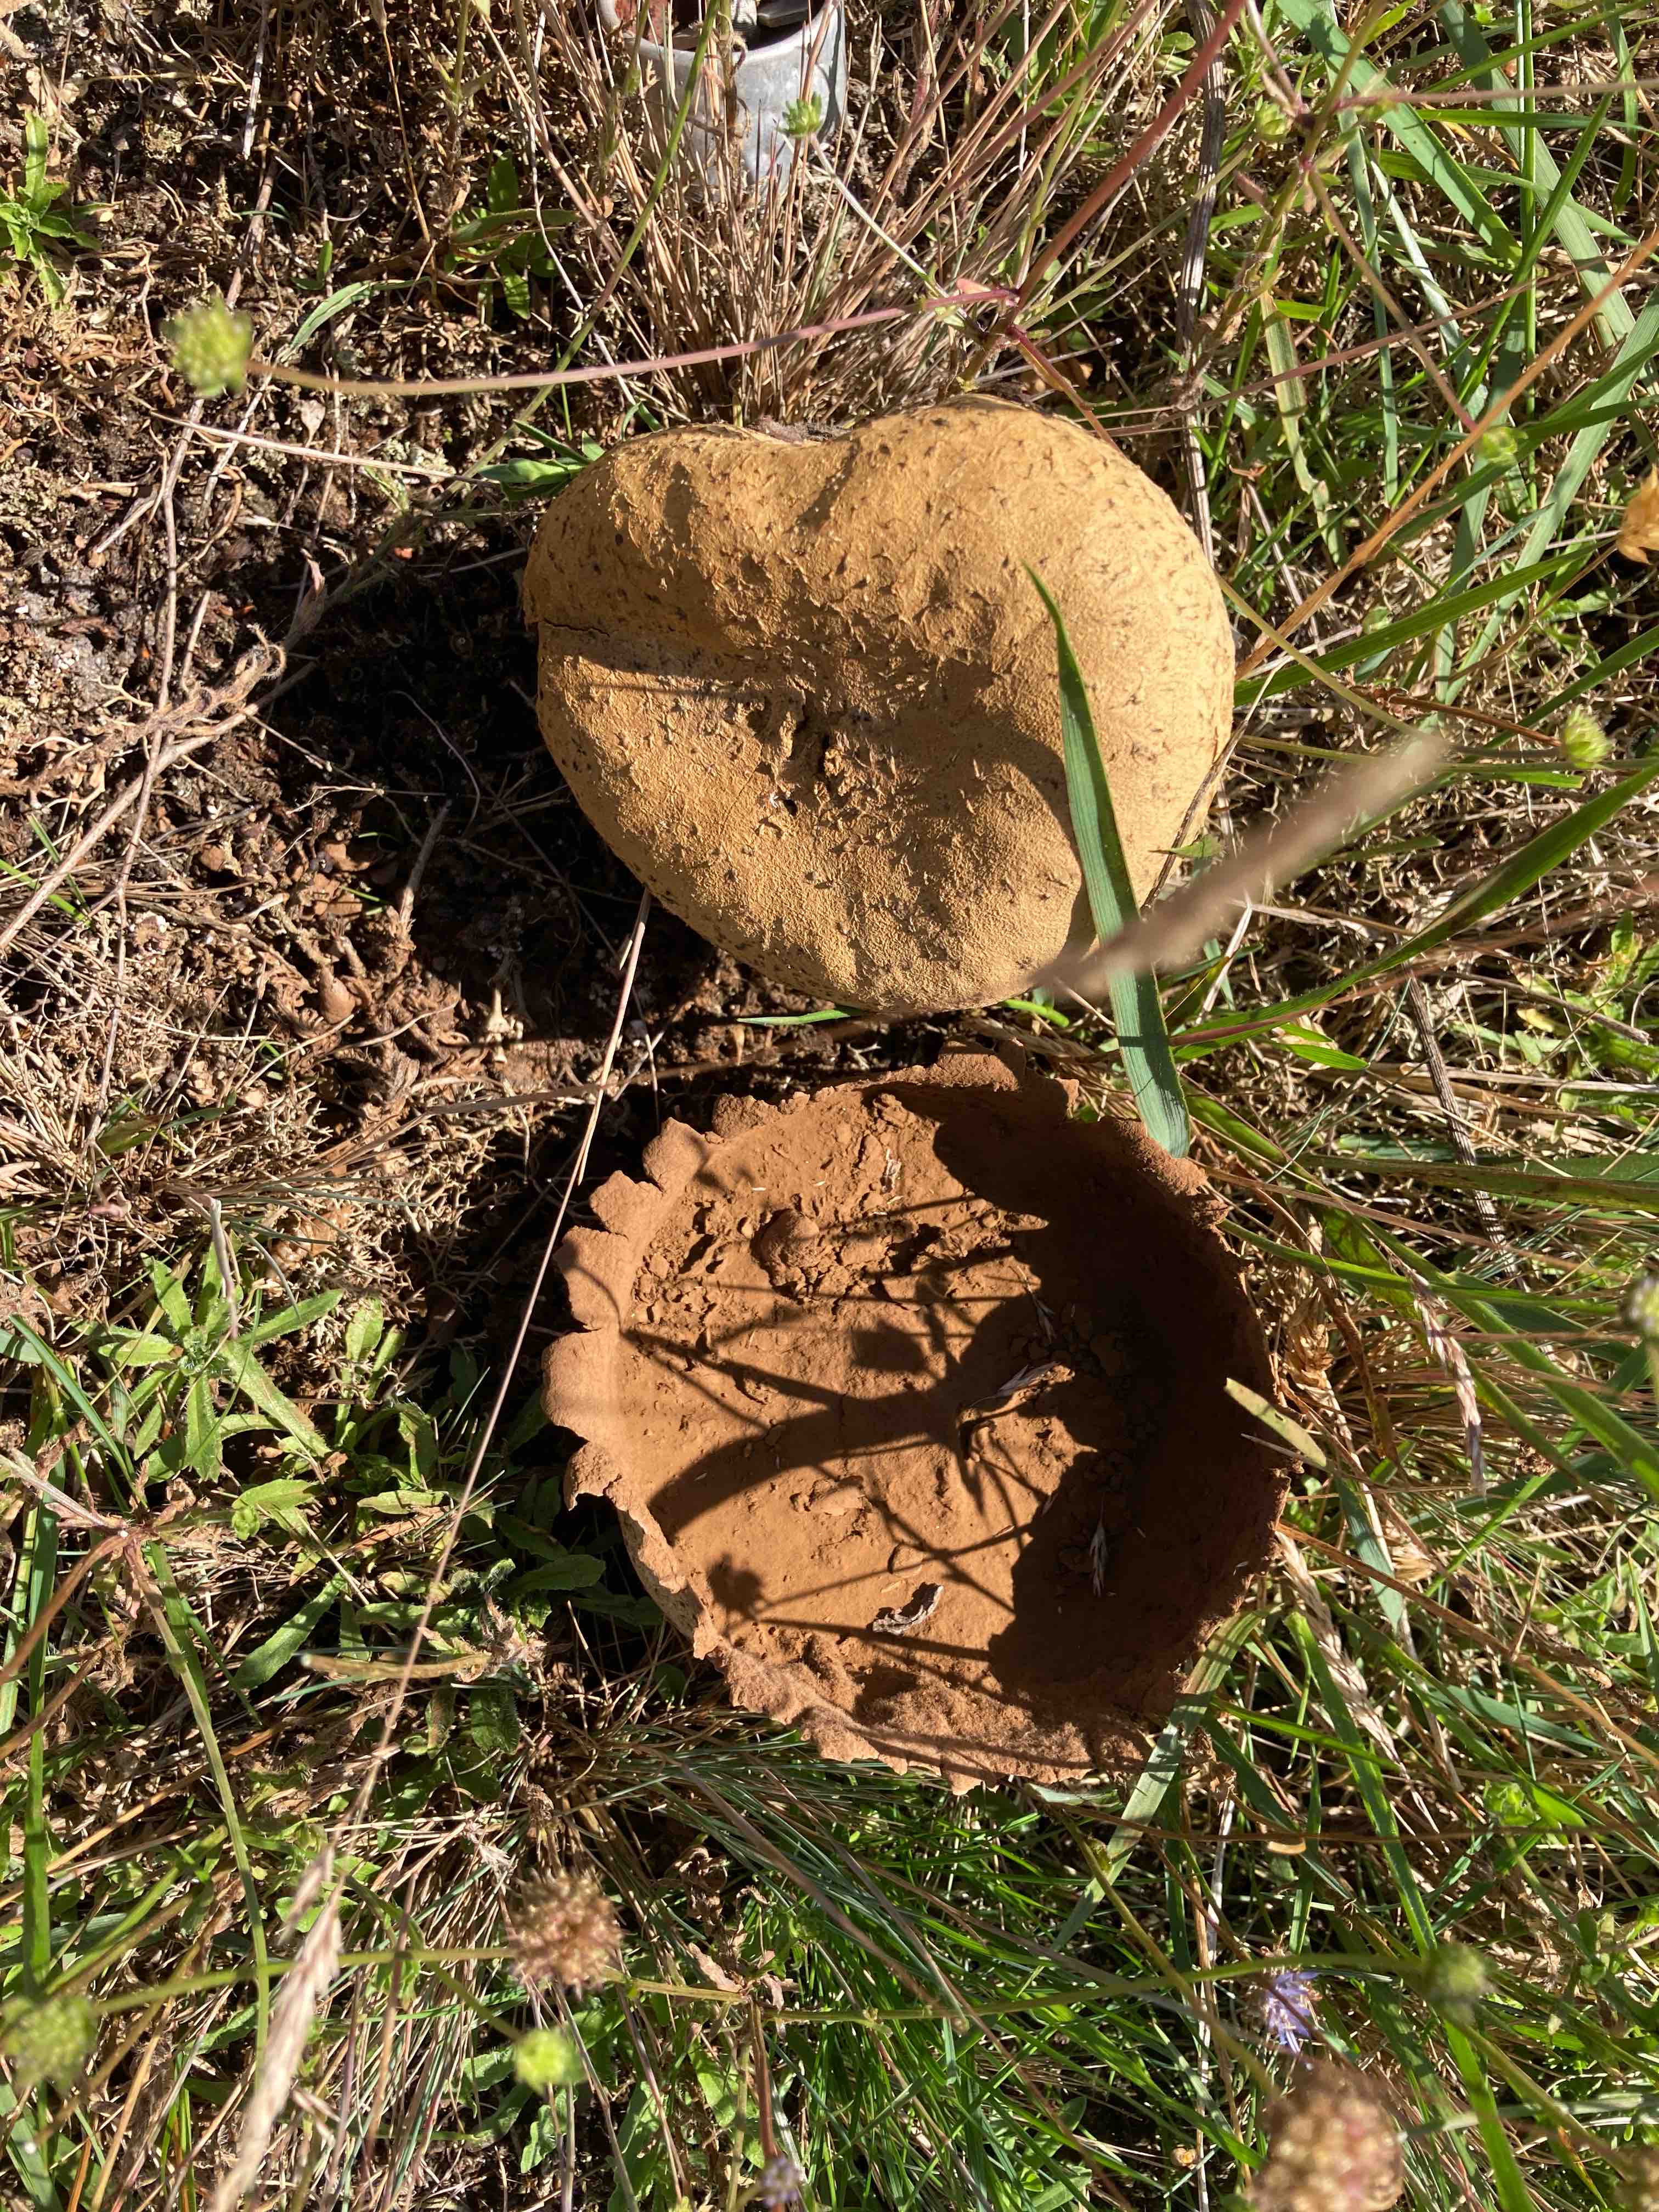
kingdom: Fungi
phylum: Basidiomycota
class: Agaricomycetes
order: Agaricales
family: Lycoperdaceae
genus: Bovistella
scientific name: Bovistella utriformis
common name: skællet støvbold
